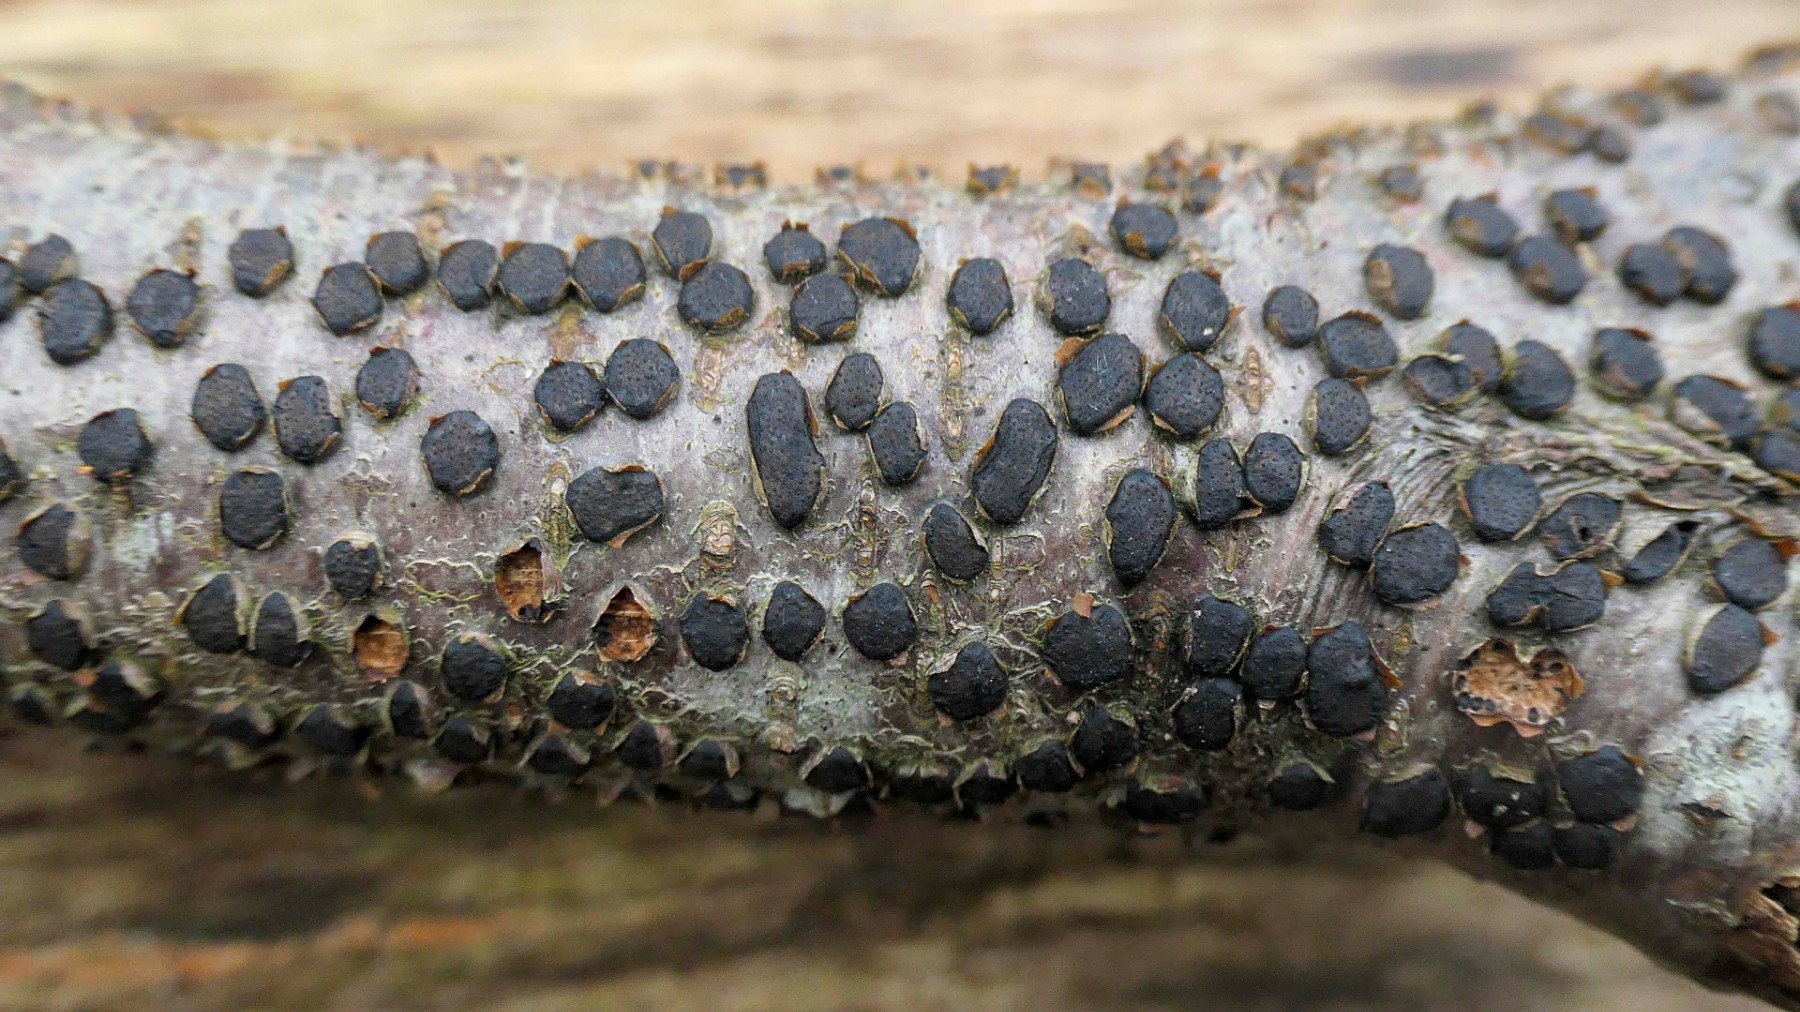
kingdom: Fungi
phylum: Ascomycota
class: Sordariomycetes
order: Xylariales
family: Diatrypaceae
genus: Diatrype
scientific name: Diatrype disciformis
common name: kant-kulskorpe
